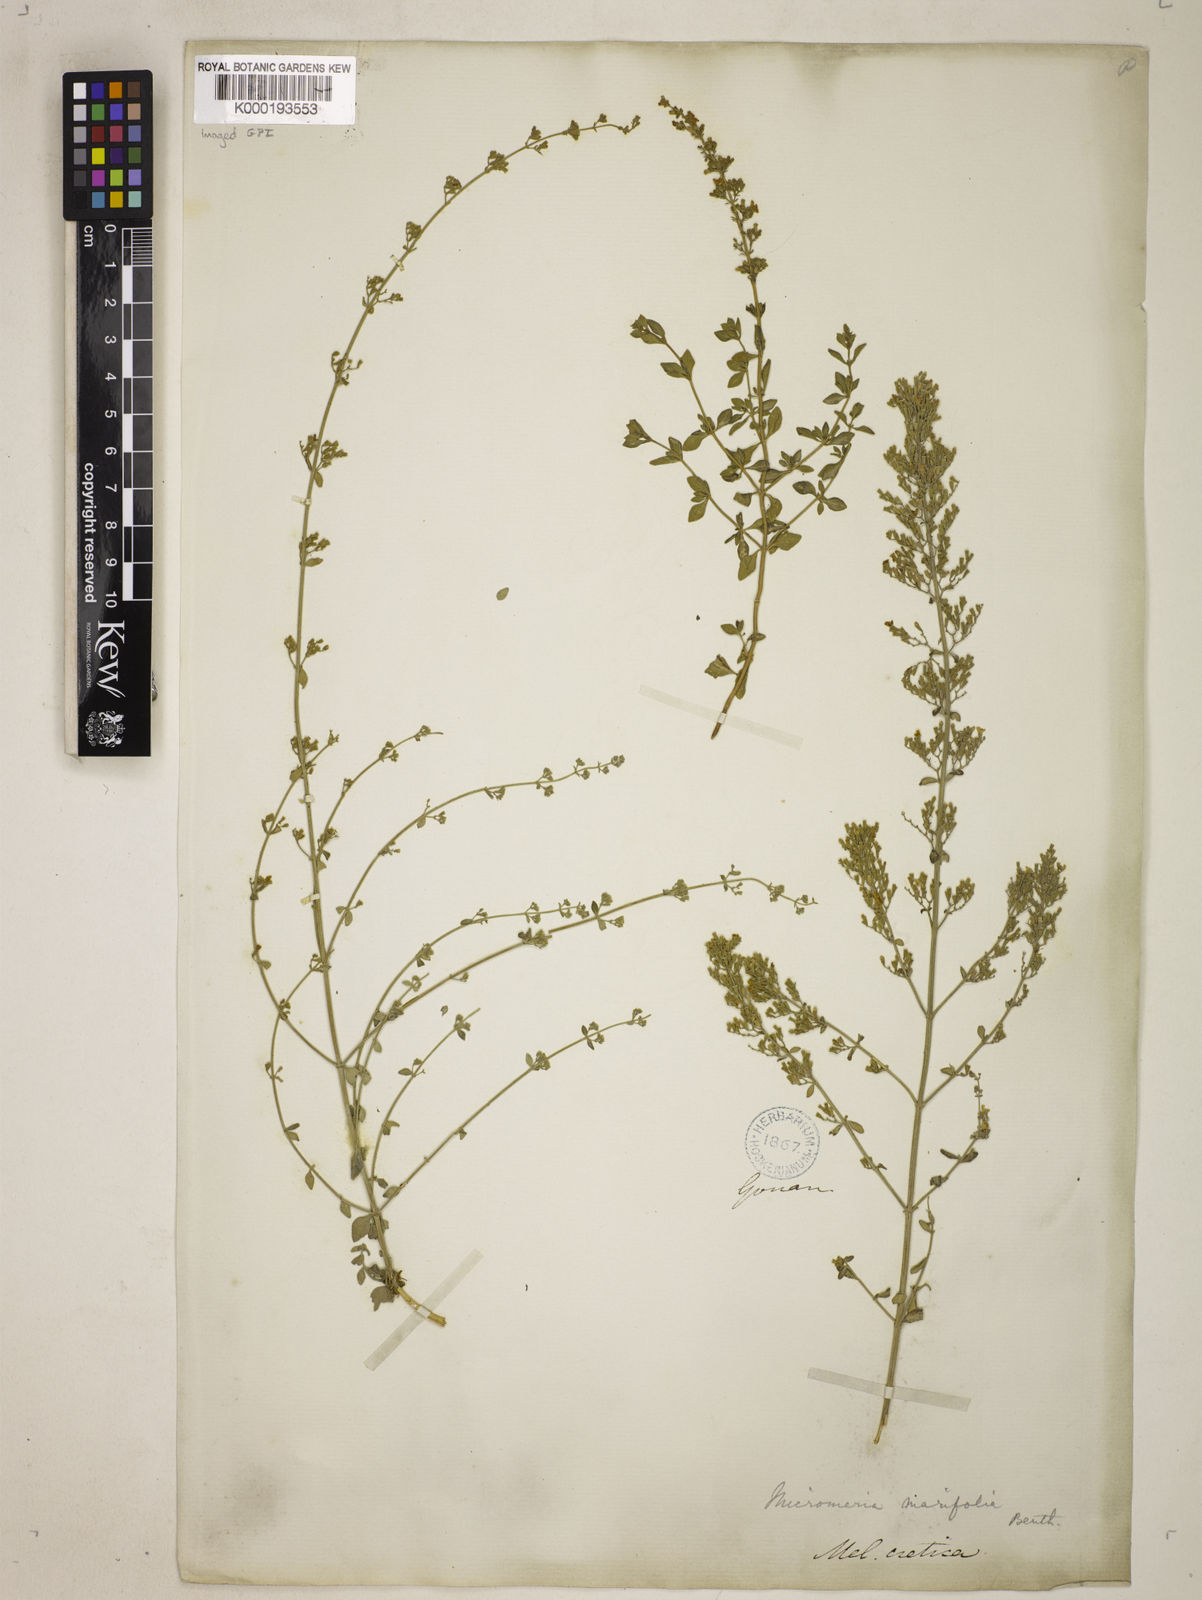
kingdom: Plantae
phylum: Tracheophyta
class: Magnoliopsida
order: Lamiales
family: Lamiaceae
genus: Clinopodium
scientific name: Clinopodium serpyllifolium
